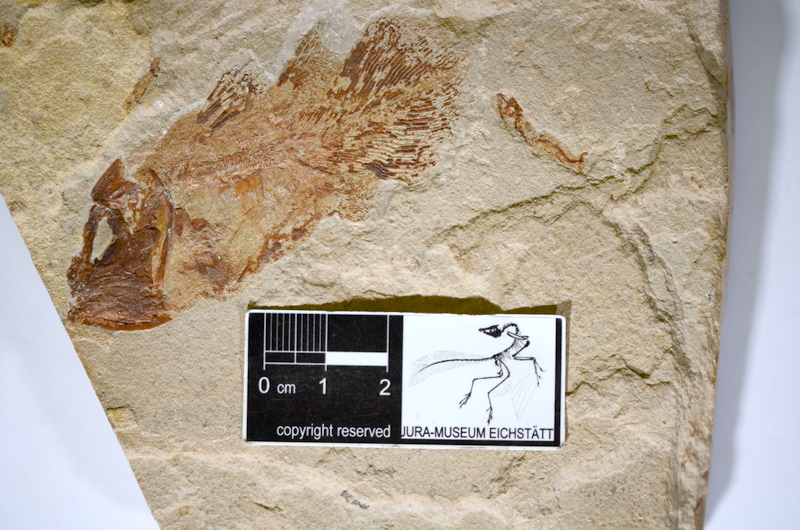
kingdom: Animalia
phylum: Chordata
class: Coelacanthi
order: Coelacanthiformes
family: Latimeriidae
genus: Macropomoides
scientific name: Macropomoides orientalis
